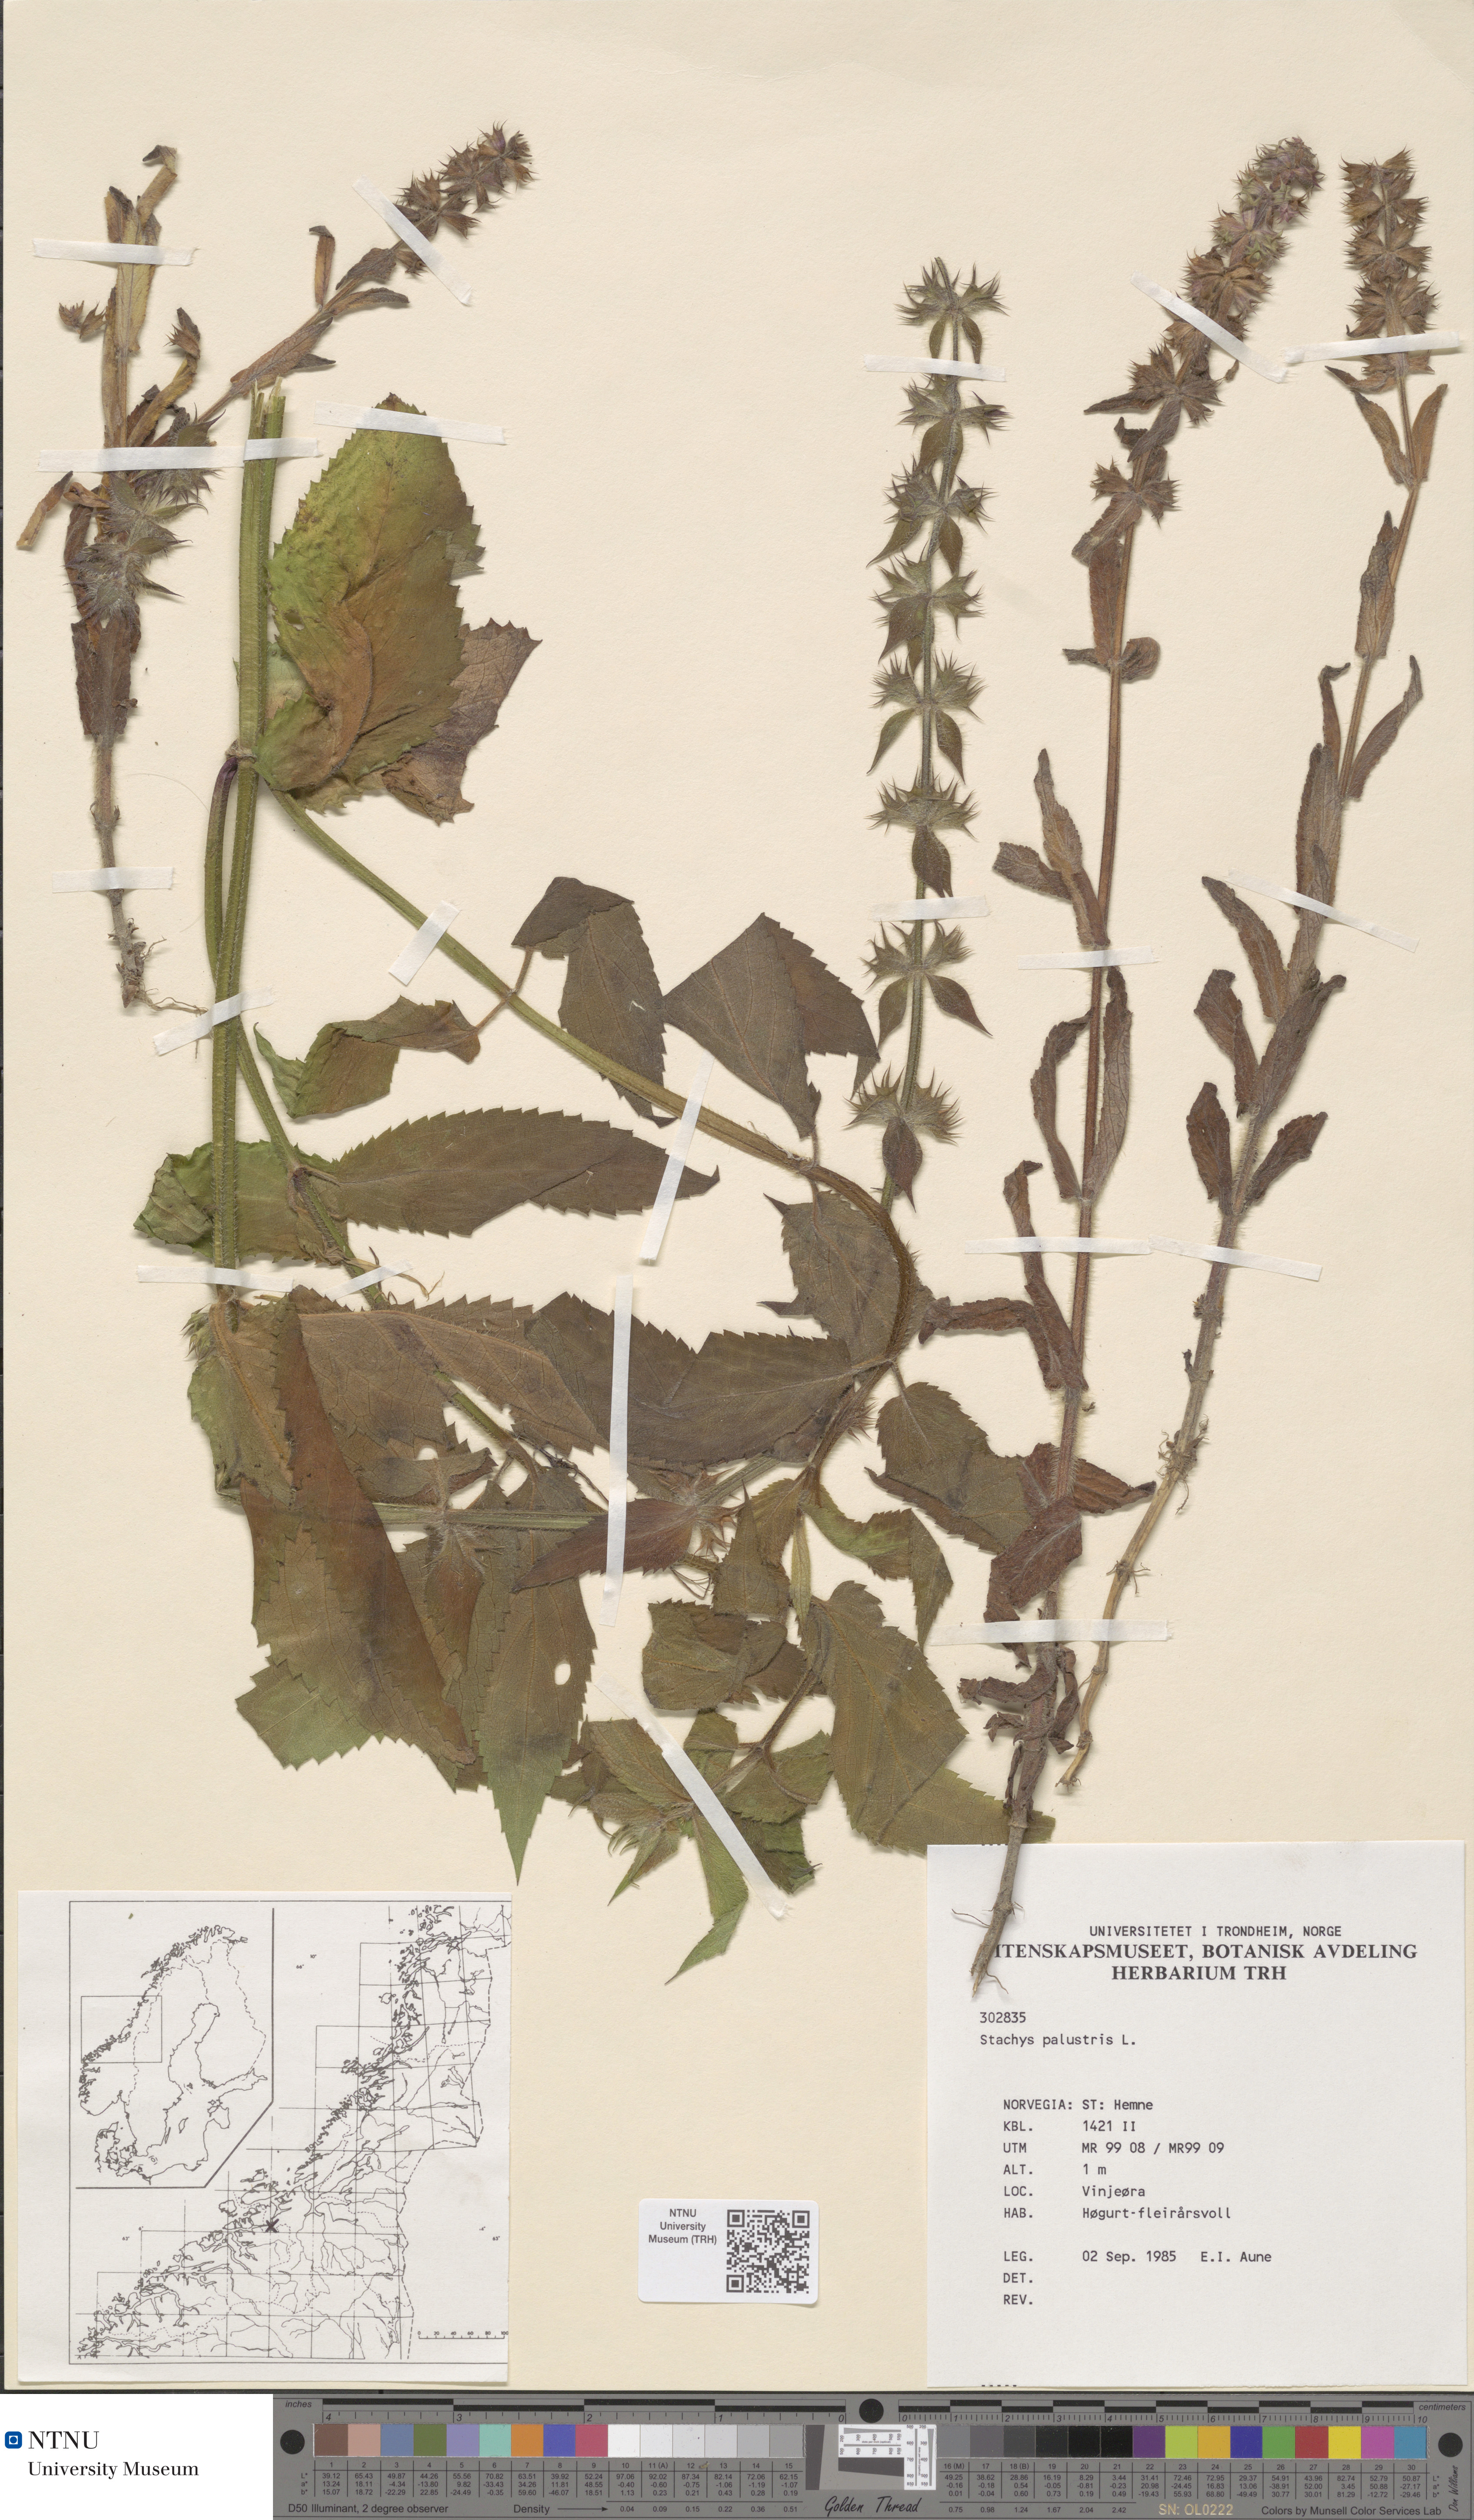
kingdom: Plantae
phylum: Tracheophyta
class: Magnoliopsida
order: Lamiales
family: Lamiaceae
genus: Stachys
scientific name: Stachys palustris
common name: Marsh woundwort
